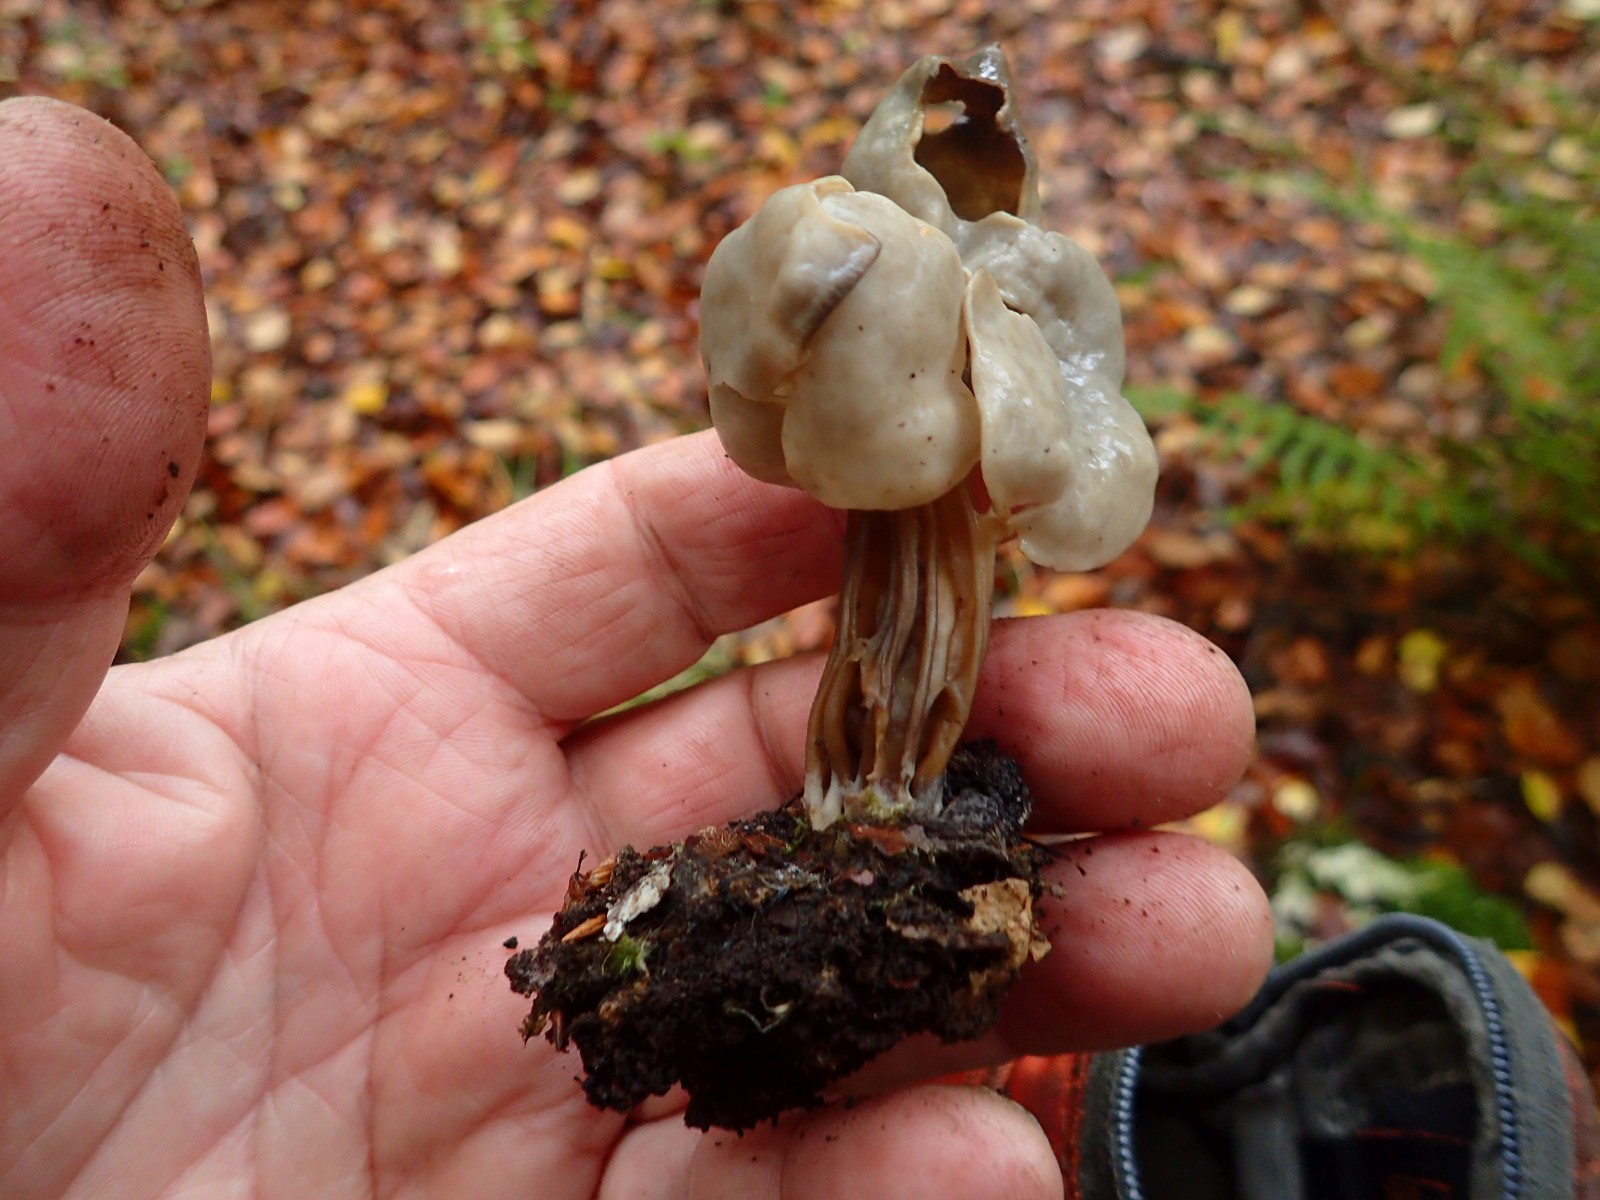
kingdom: Fungi
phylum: Ascomycota
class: Pezizomycetes
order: Pezizales
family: Helvellaceae
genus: Helvella
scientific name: Helvella lacunosa
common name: grubet foldhat
